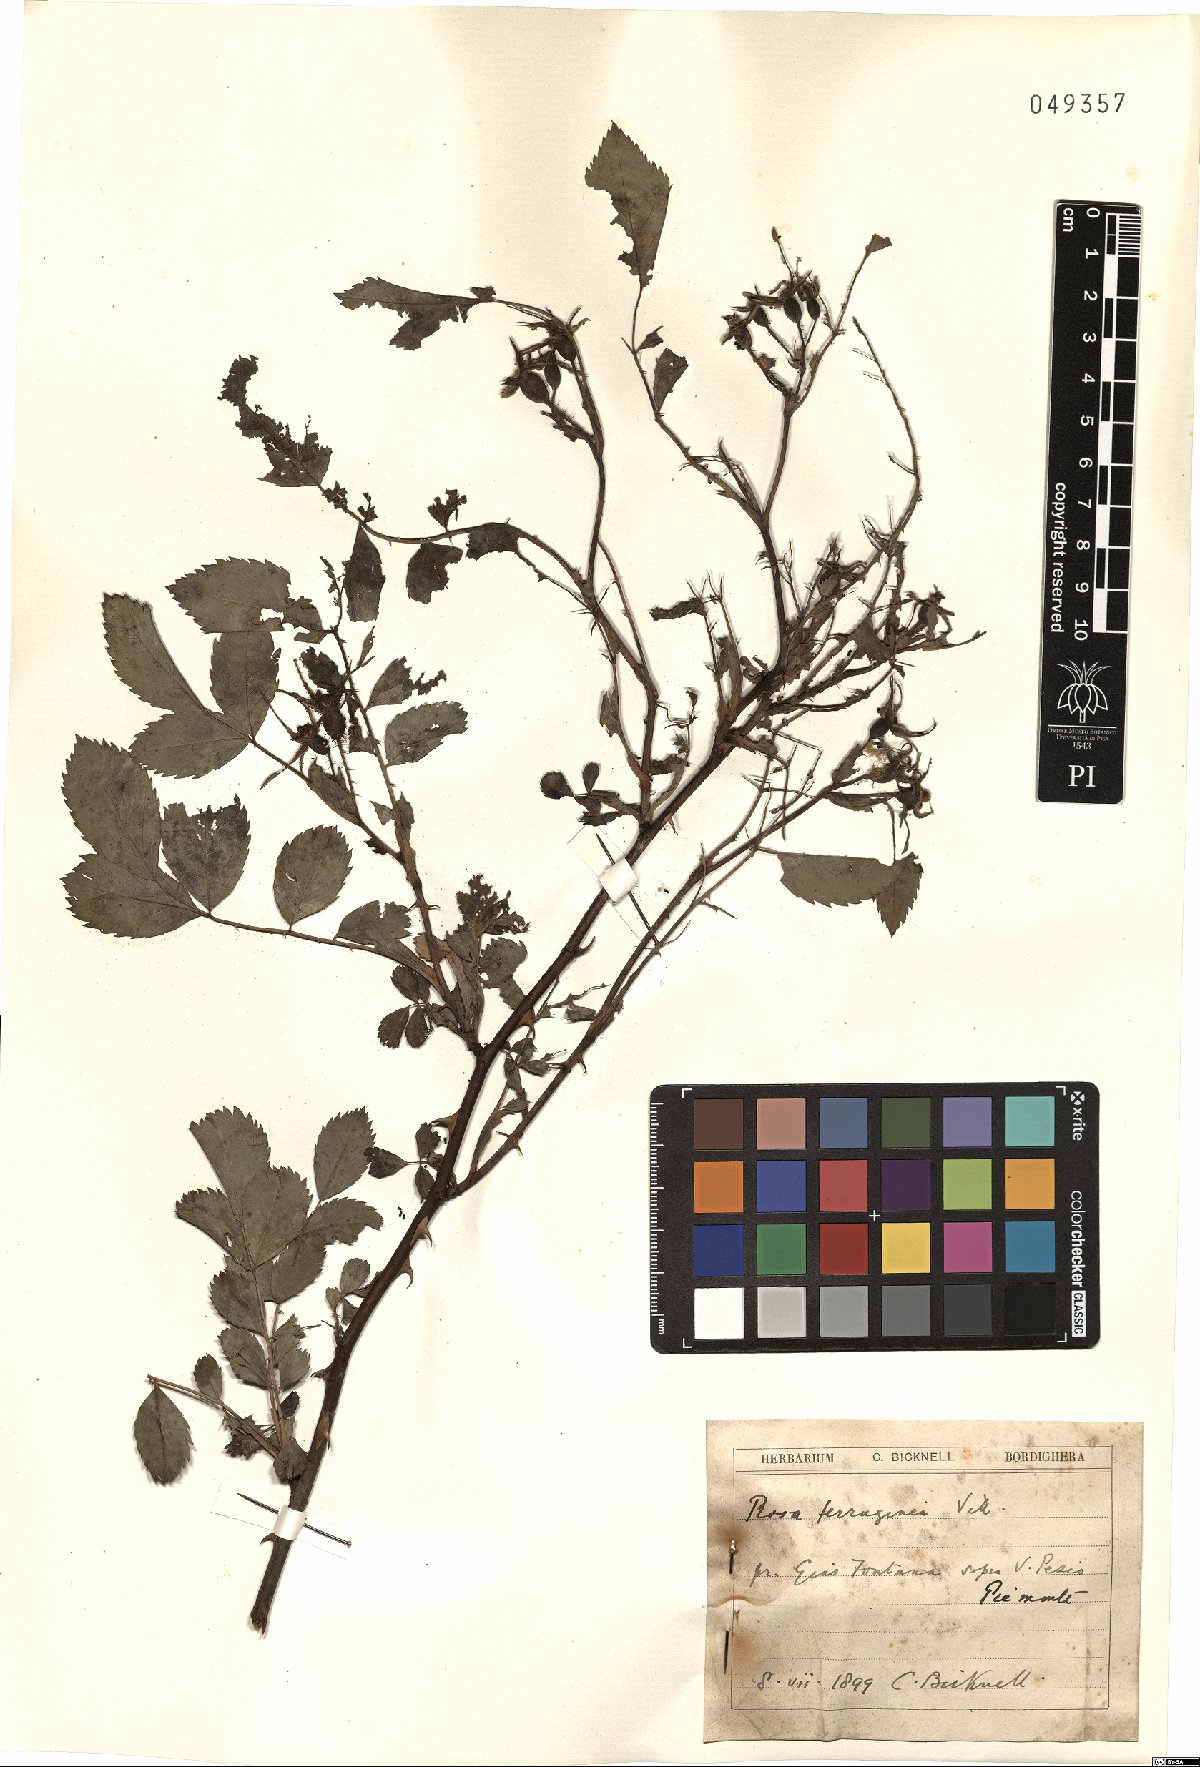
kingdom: Plantae
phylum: Tracheophyta
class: Magnoliopsida
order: Rosales
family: Rosaceae
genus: Rosa
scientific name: Rosa glauca
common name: Redleaf rose
